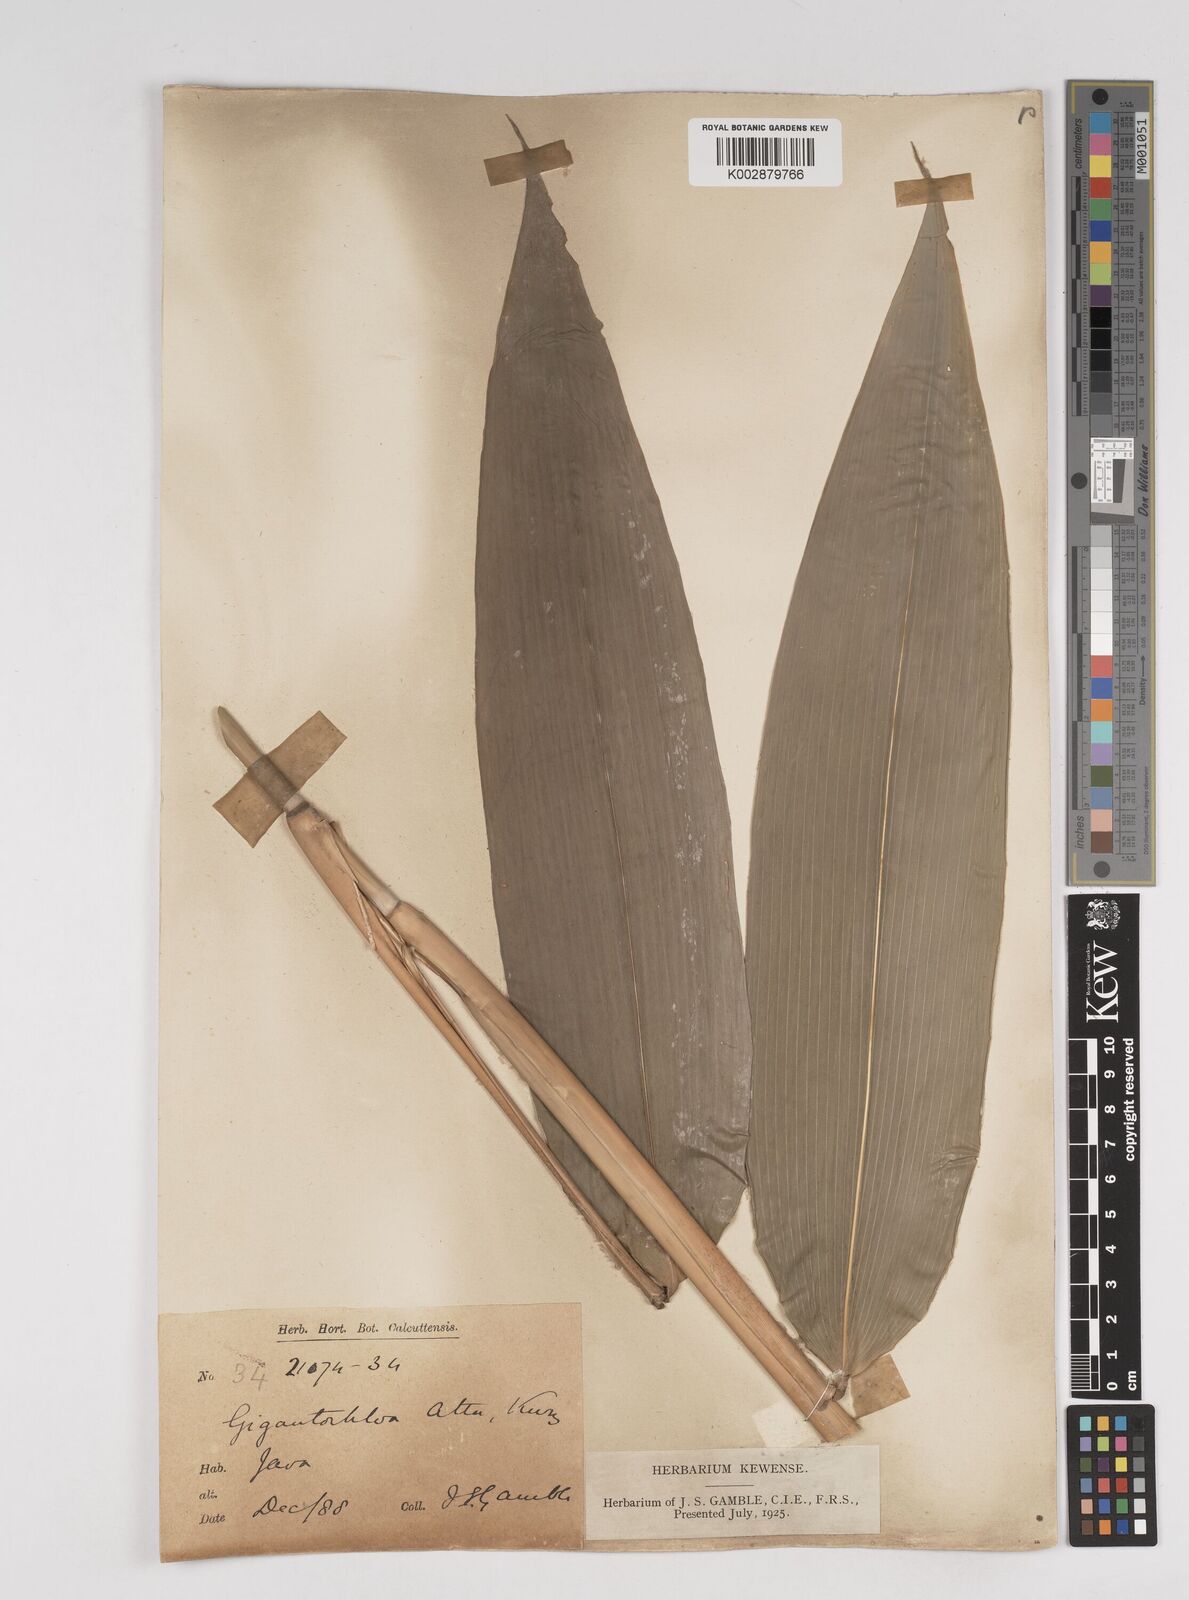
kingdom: Plantae
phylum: Tracheophyta
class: Liliopsida
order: Poales
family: Poaceae
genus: Gigantochloa
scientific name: Gigantochloa atter
